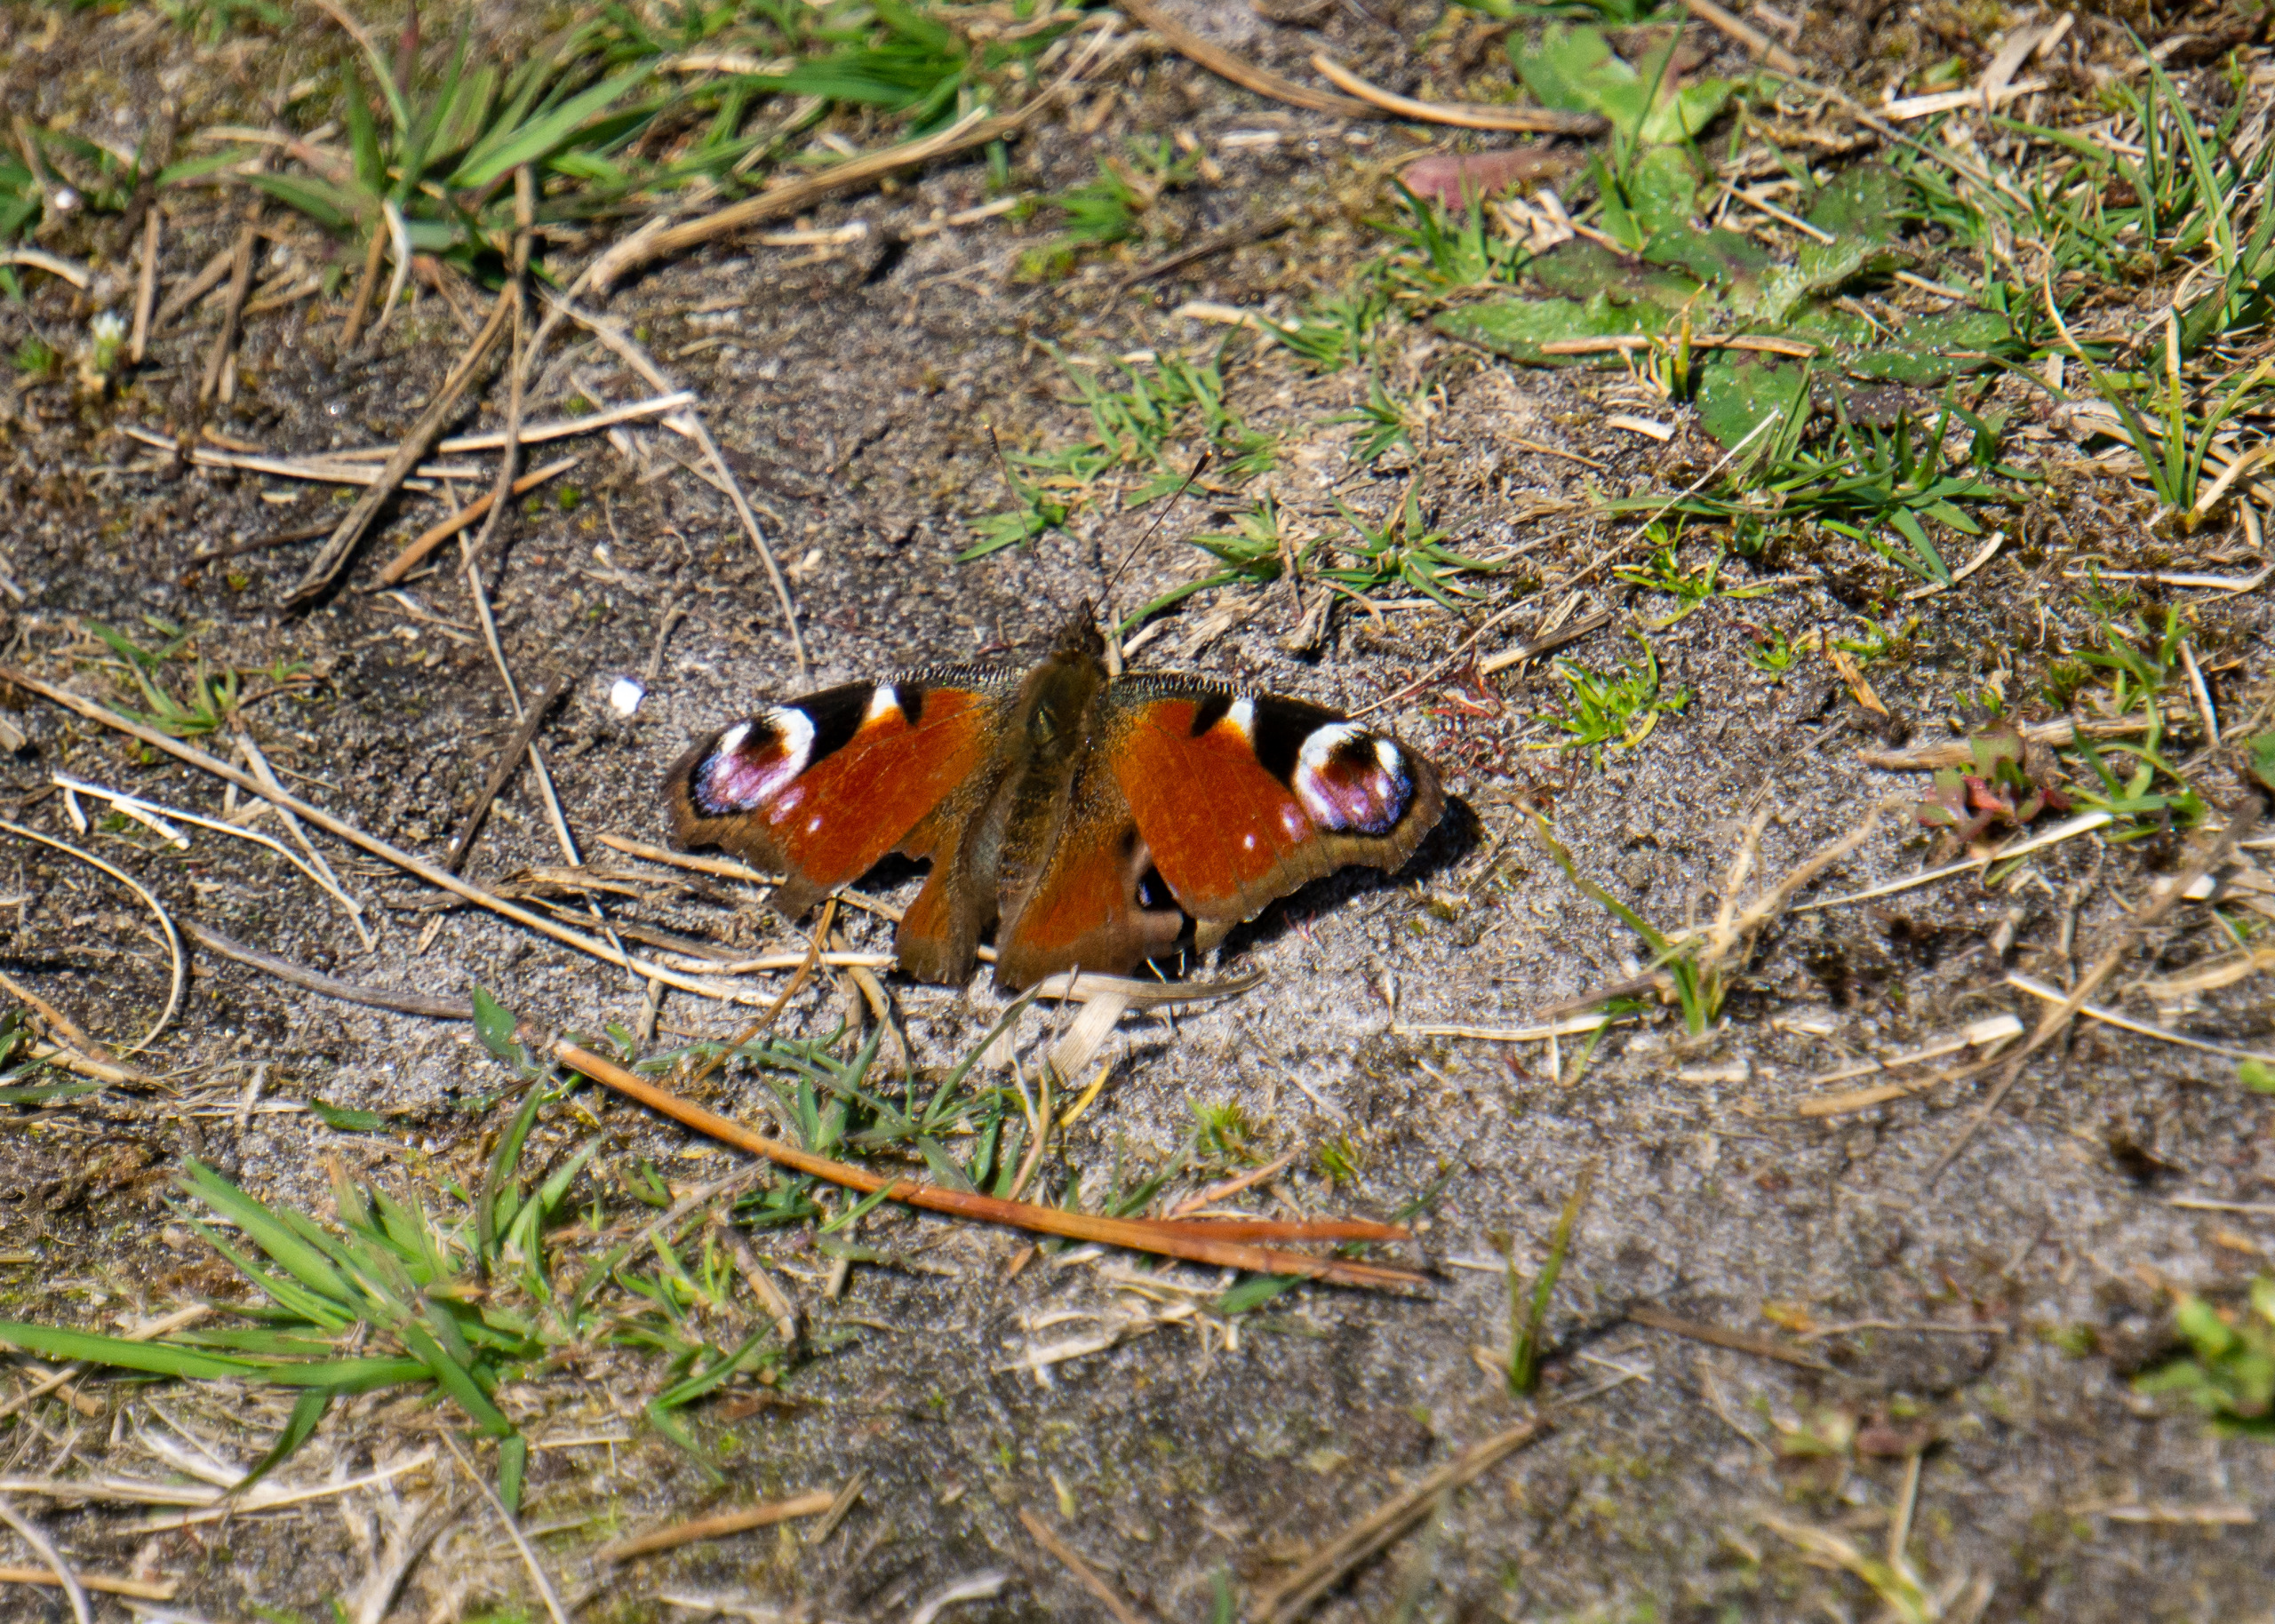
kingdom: Animalia
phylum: Arthropoda
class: Insecta
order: Lepidoptera
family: Nymphalidae
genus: Aglais
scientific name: Aglais io
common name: Dagpåfugleøje
